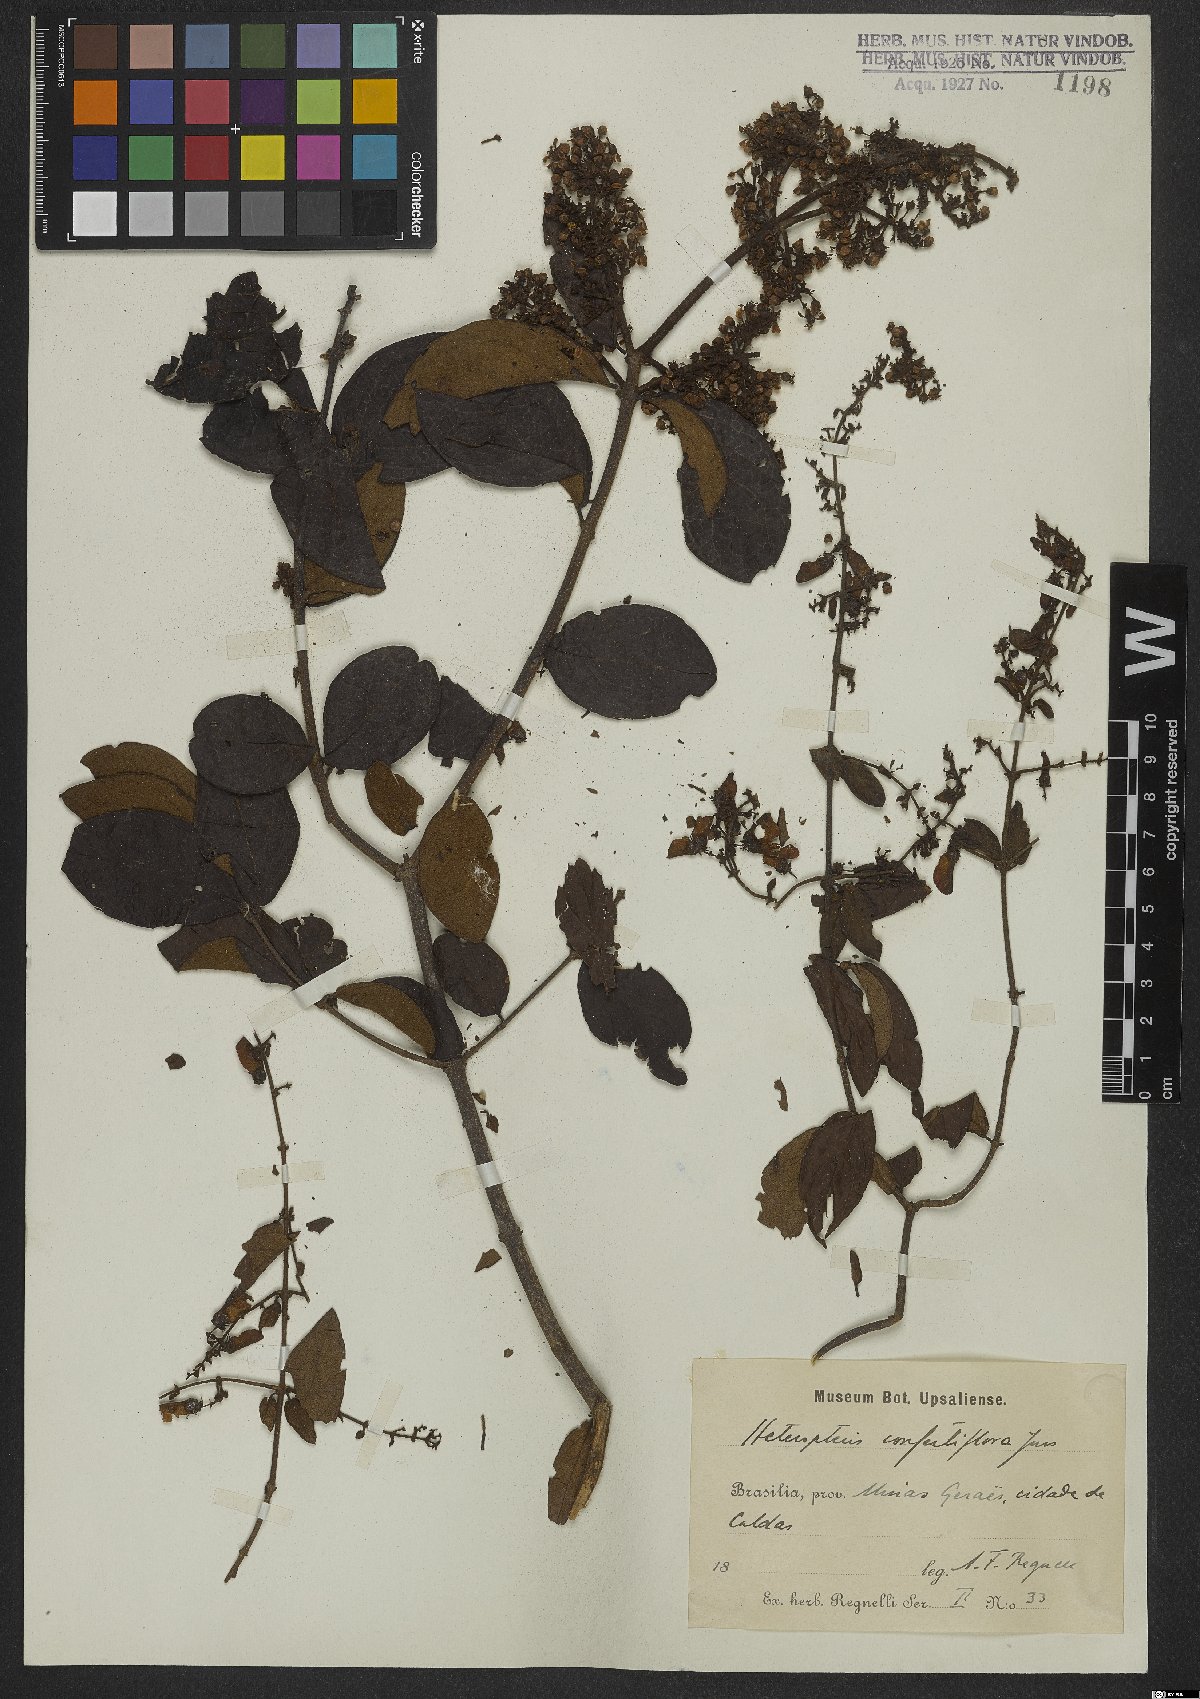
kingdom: Plantae
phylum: Tracheophyta
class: Magnoliopsida
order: Malpighiales
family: Malpighiaceae
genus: Heteropterys
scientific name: Heteropterys campestris
